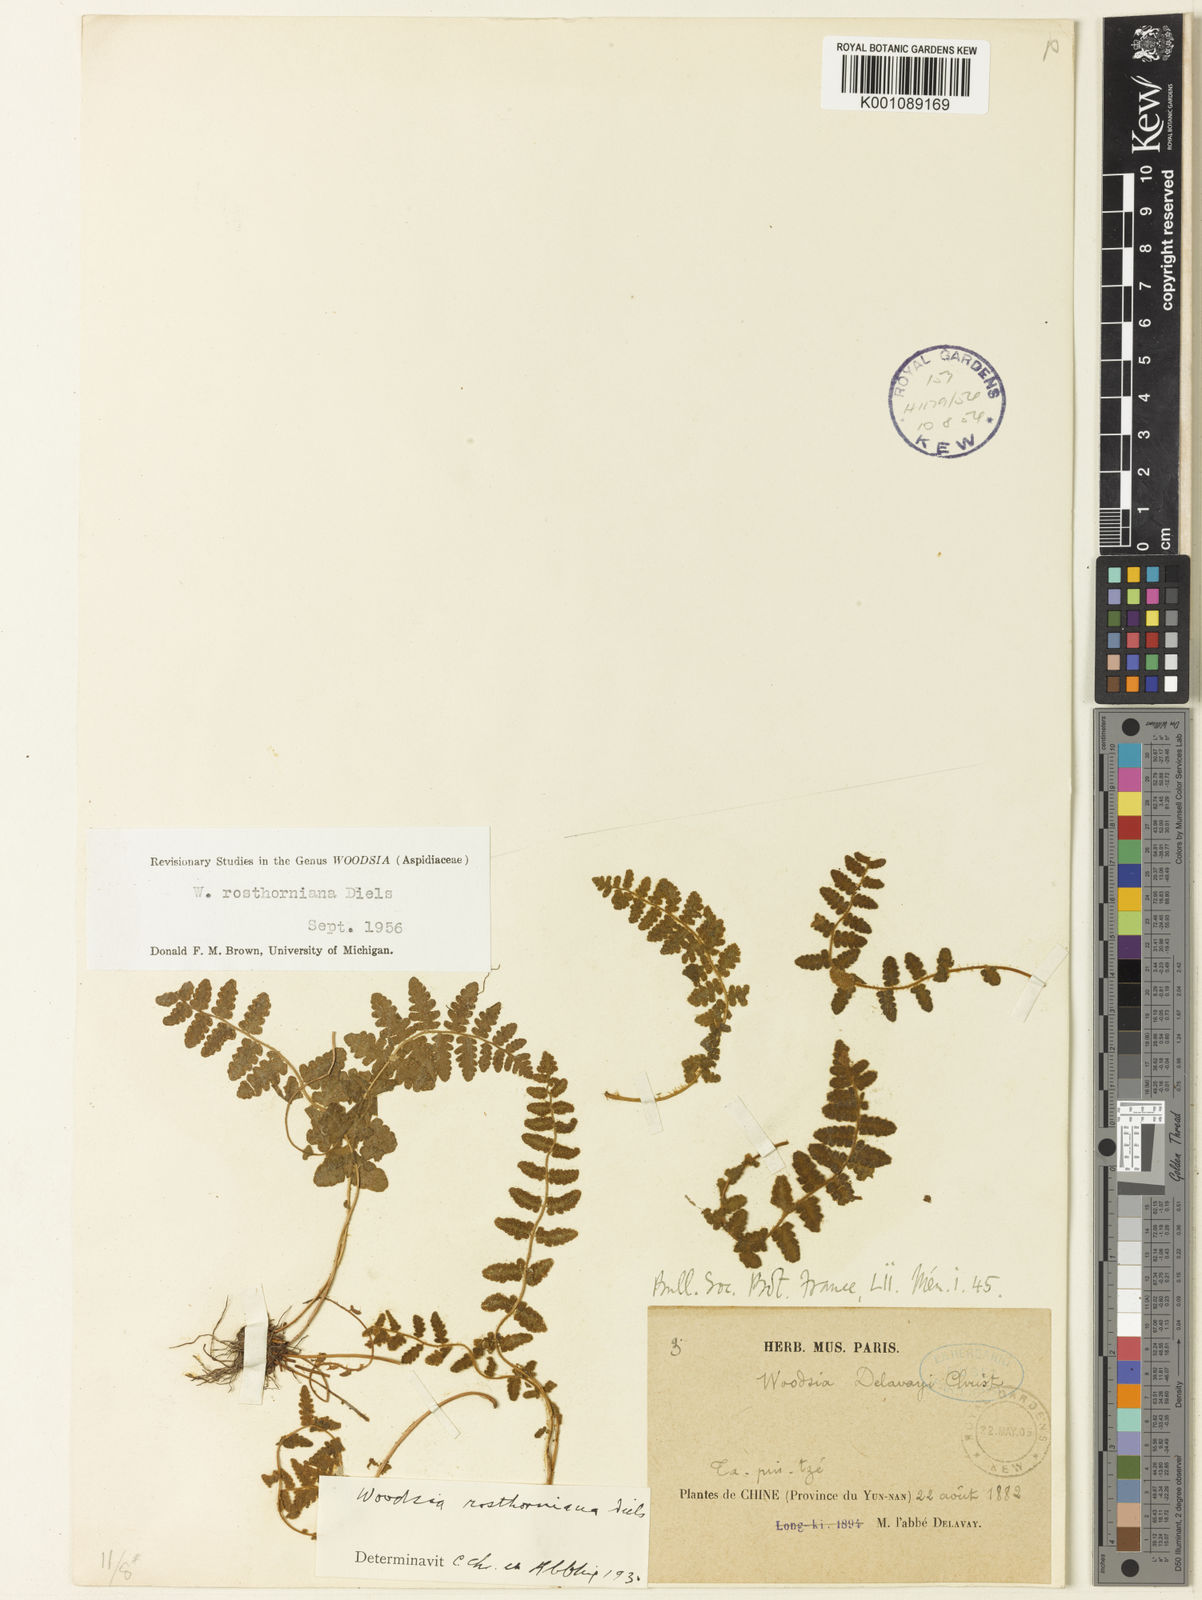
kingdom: Plantae
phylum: Tracheophyta
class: Polypodiopsida
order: Polypodiales
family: Woodsiaceae
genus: Woodsia
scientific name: Woodsia rosthorniana
